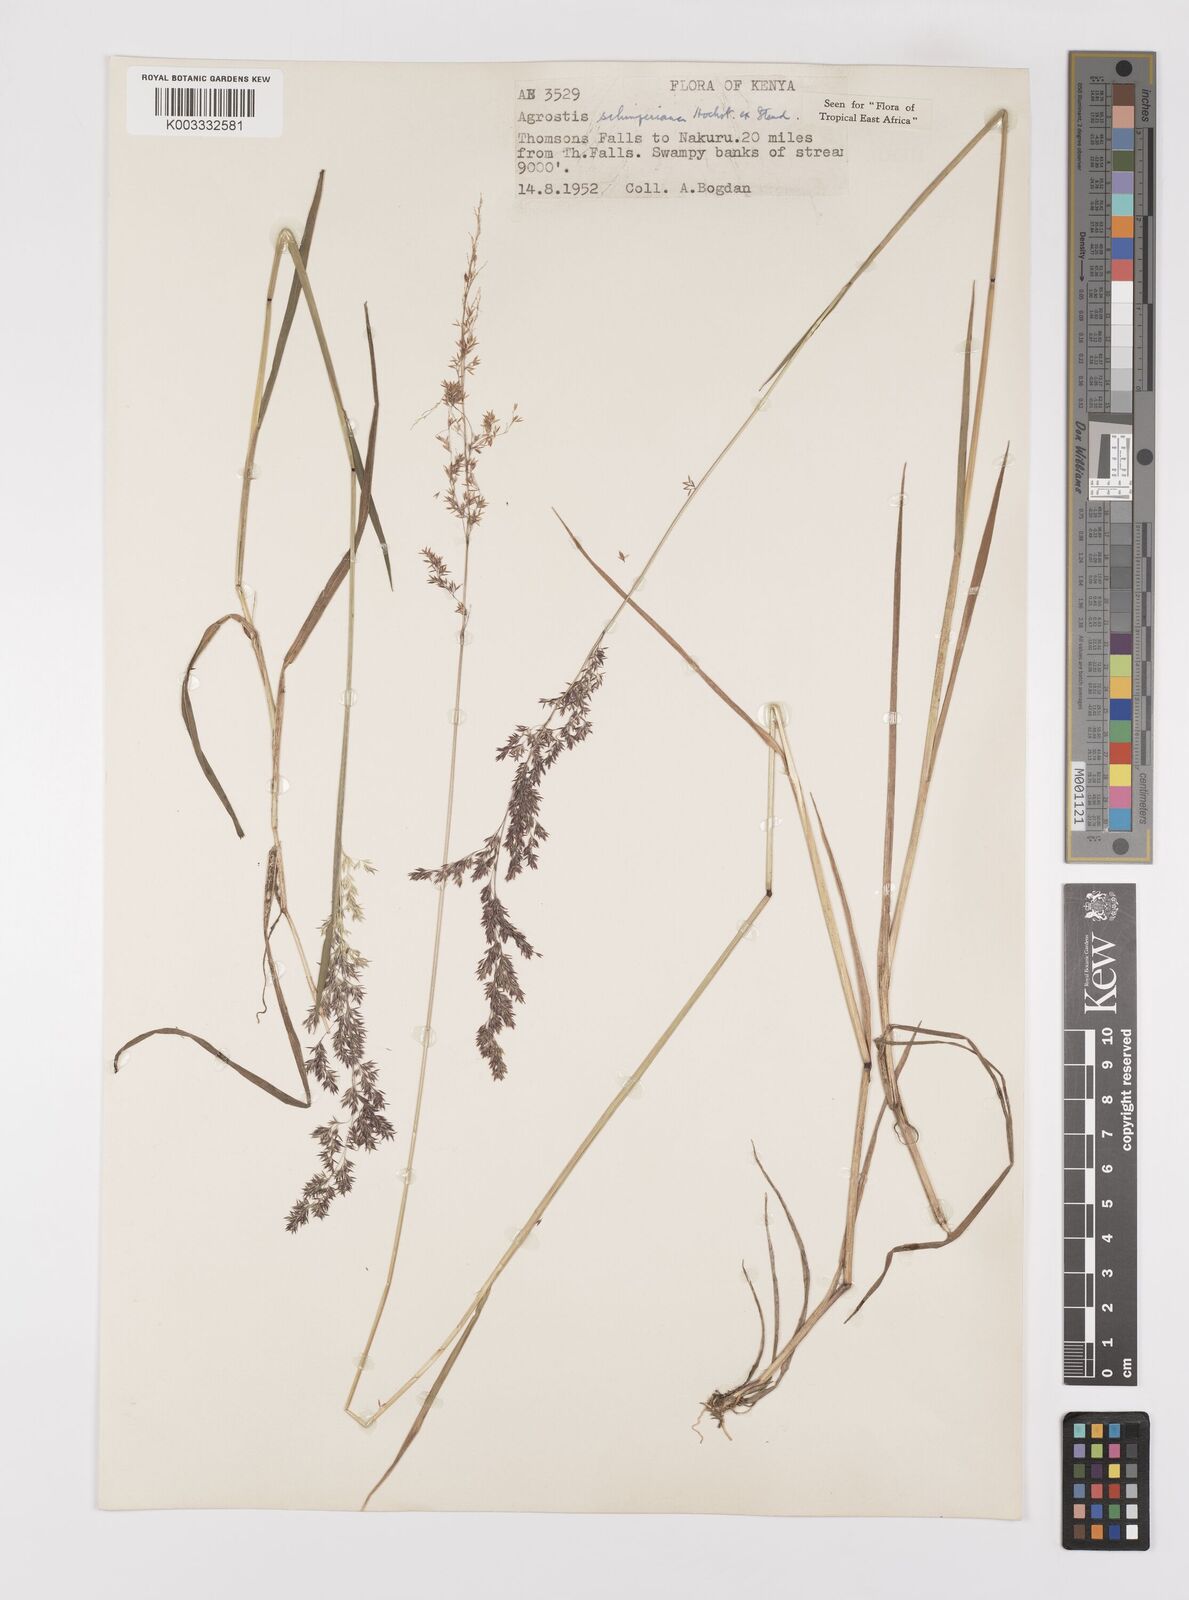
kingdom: Plantae
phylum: Tracheophyta
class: Liliopsida
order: Poales
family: Poaceae
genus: Polypogon
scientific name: Polypogon schimperianus
